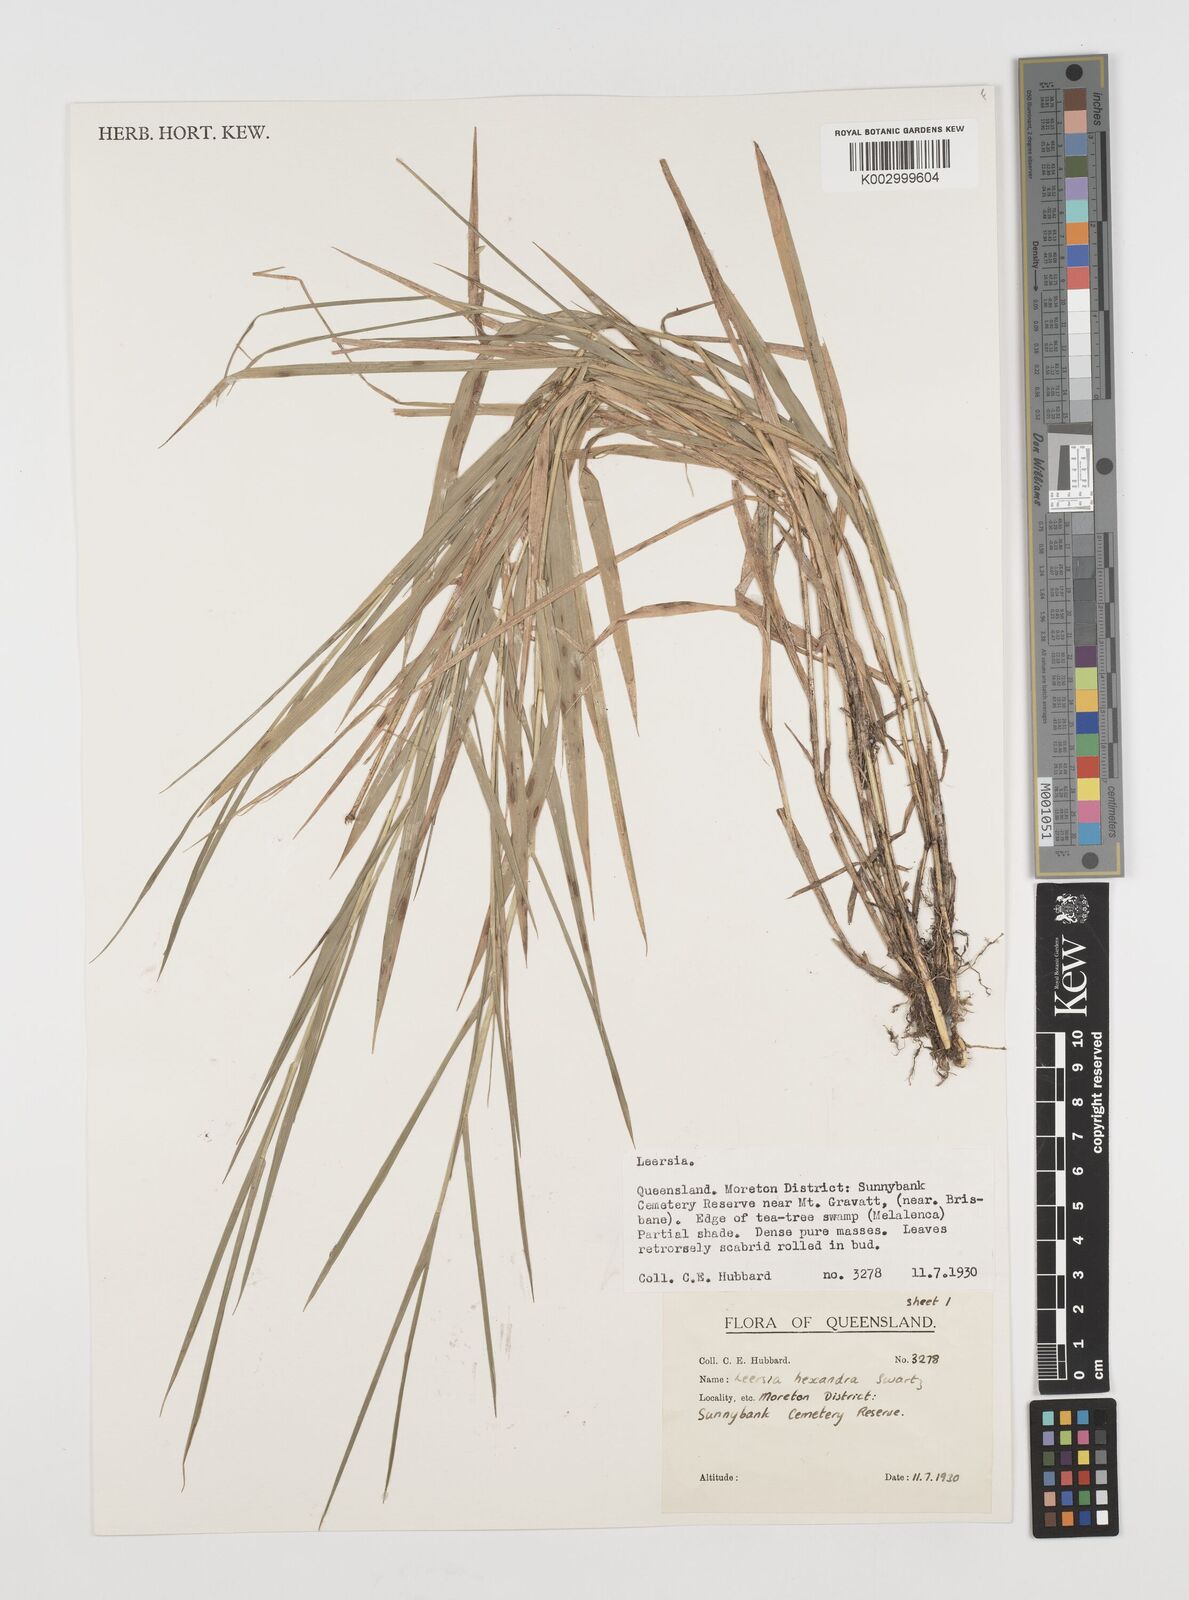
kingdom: Plantae
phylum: Tracheophyta
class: Liliopsida
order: Poales
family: Poaceae
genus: Leersia
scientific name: Leersia hexandra
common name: Southern cut grass
